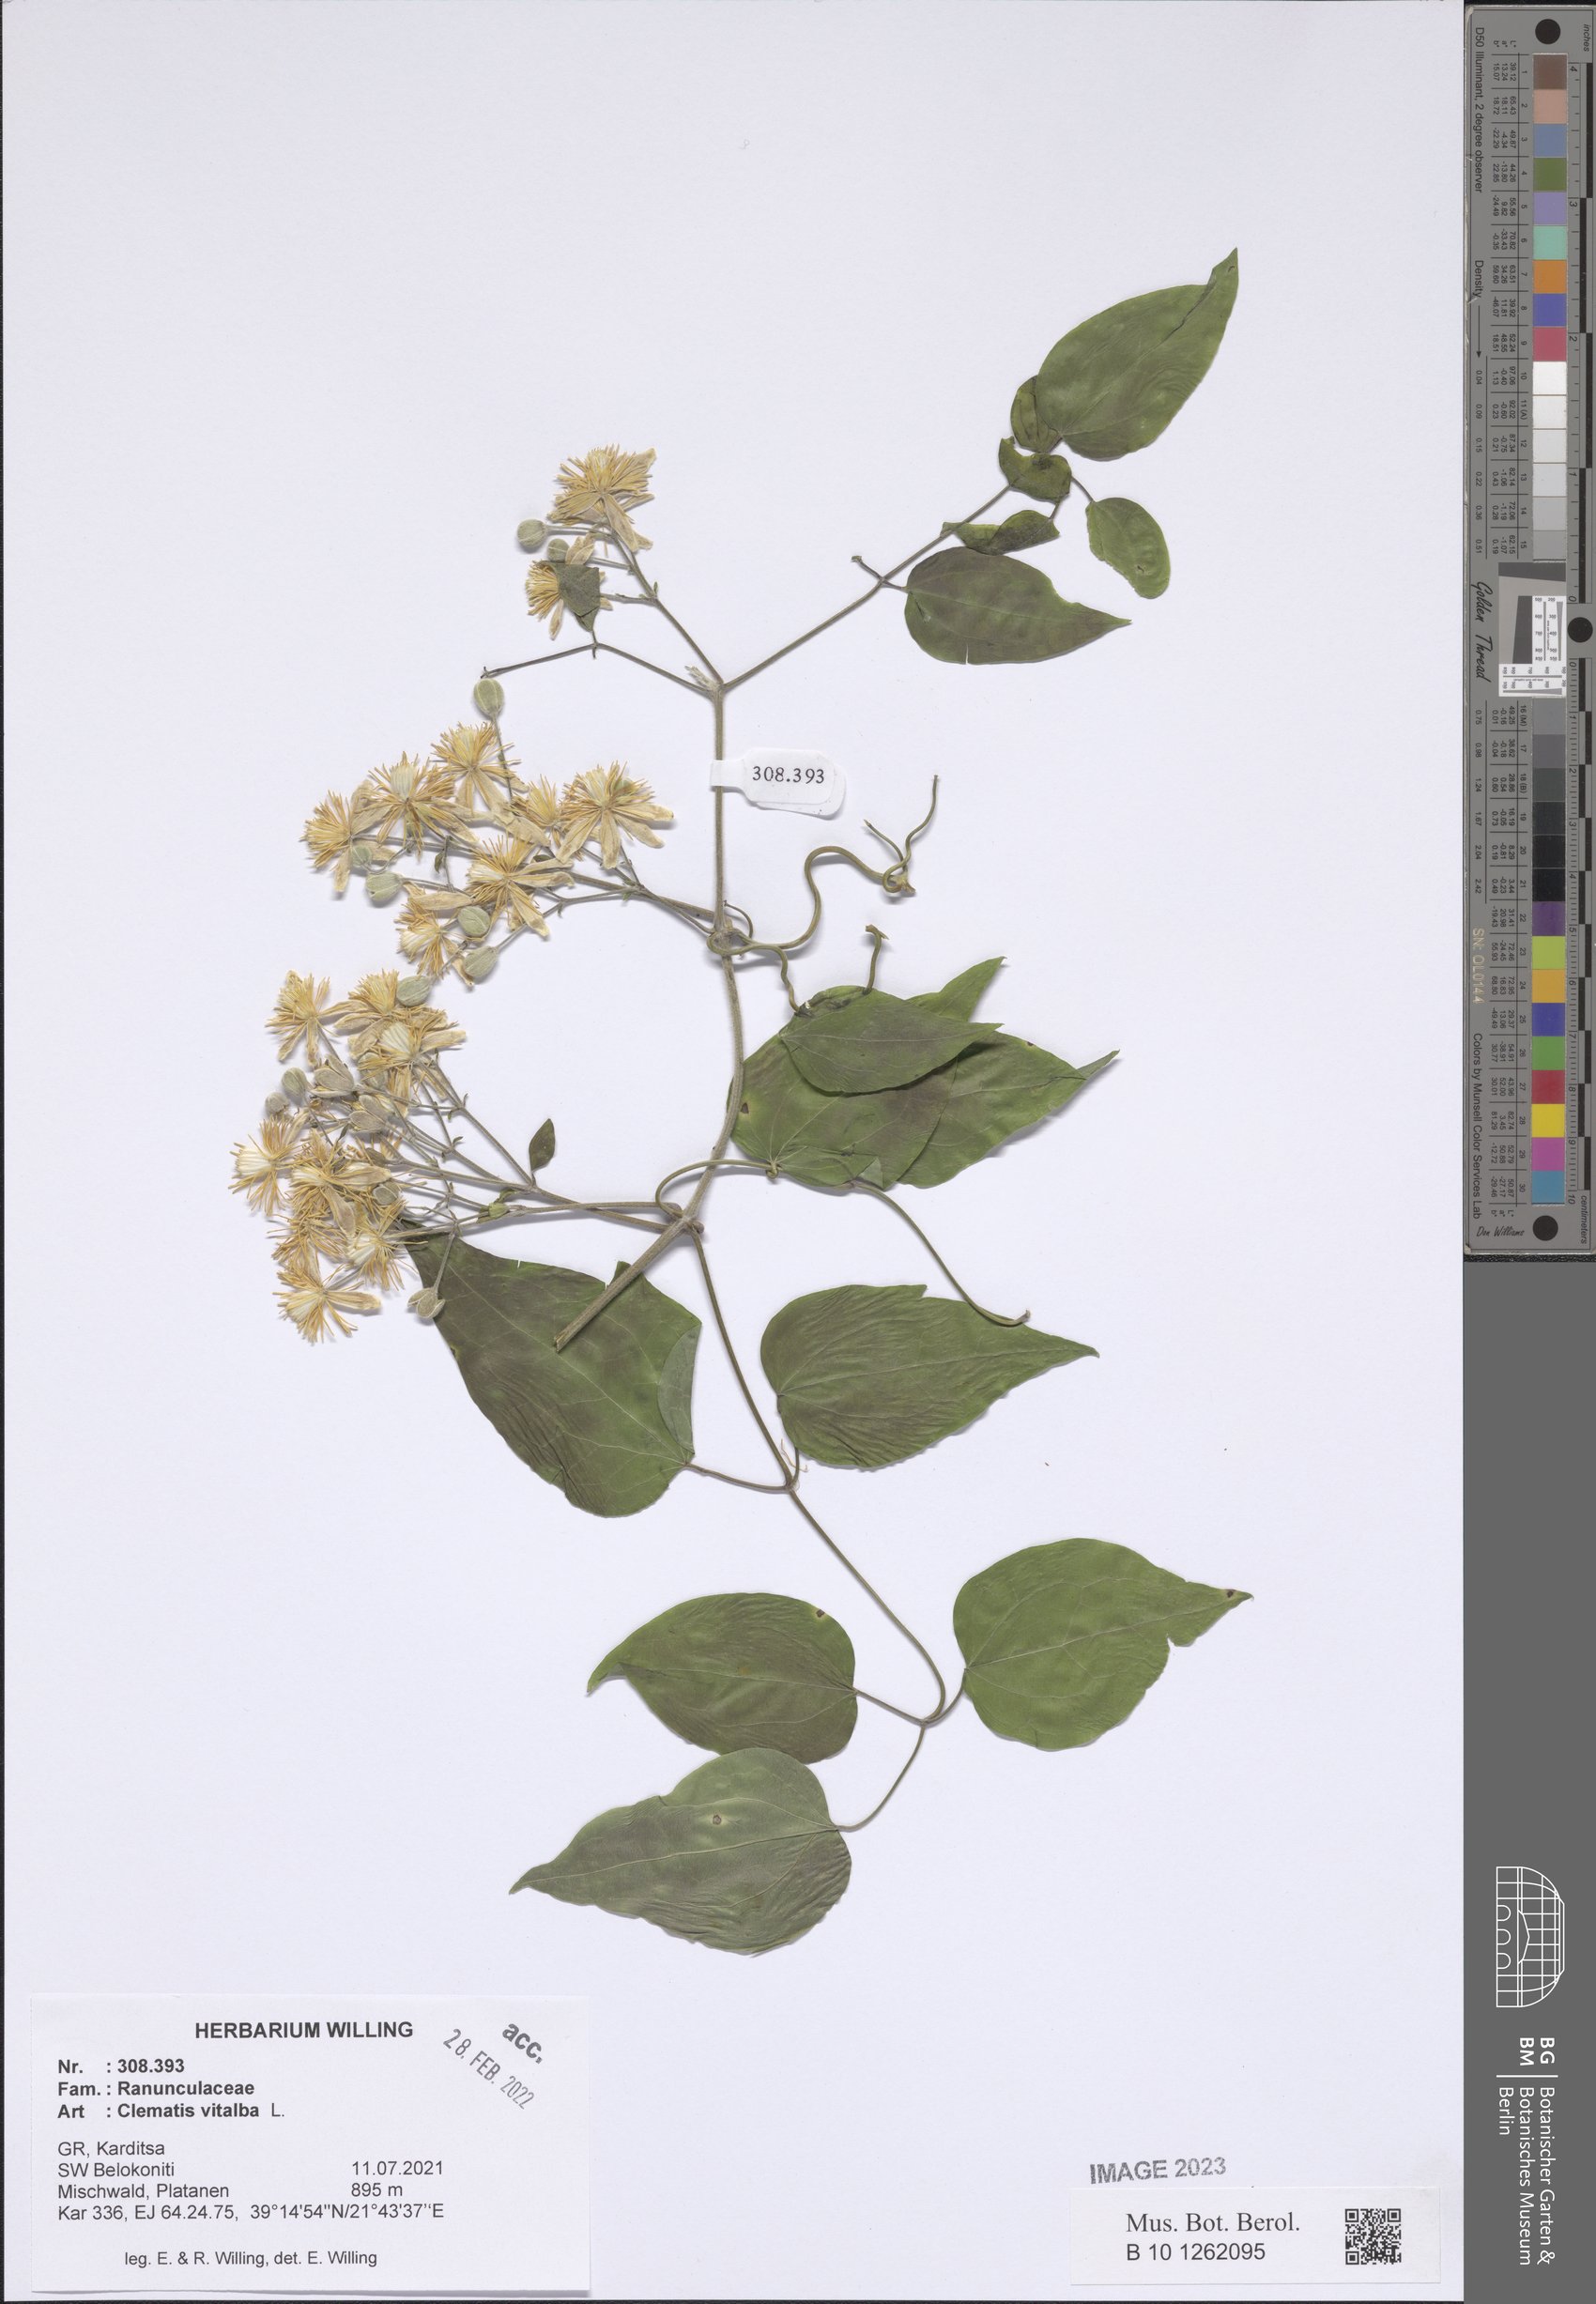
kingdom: Plantae
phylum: Tracheophyta
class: Magnoliopsida
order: Ranunculales
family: Ranunculaceae
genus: Clematis
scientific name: Clematis vitalba
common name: Evergreen clematis
